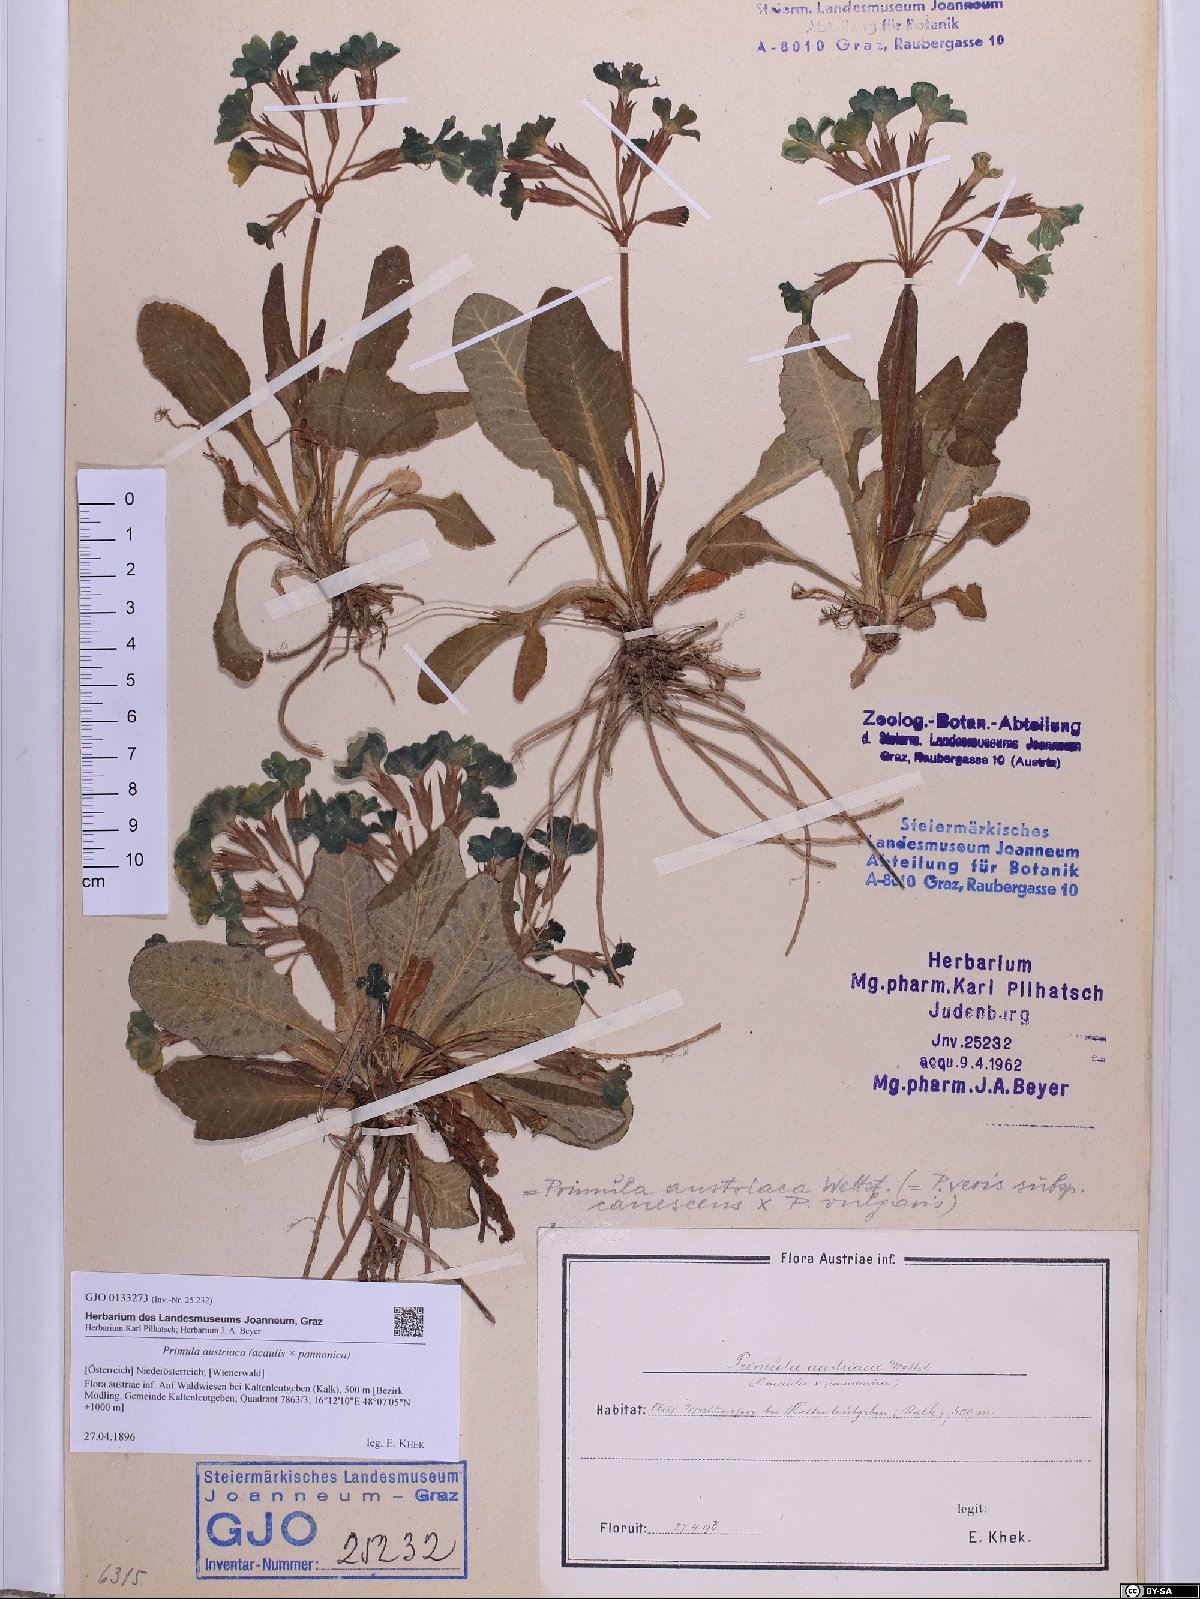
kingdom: Plantae
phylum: Tracheophyta
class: Magnoliopsida
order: Ericales
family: Primulaceae
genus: Primula
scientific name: Primula austriaca
